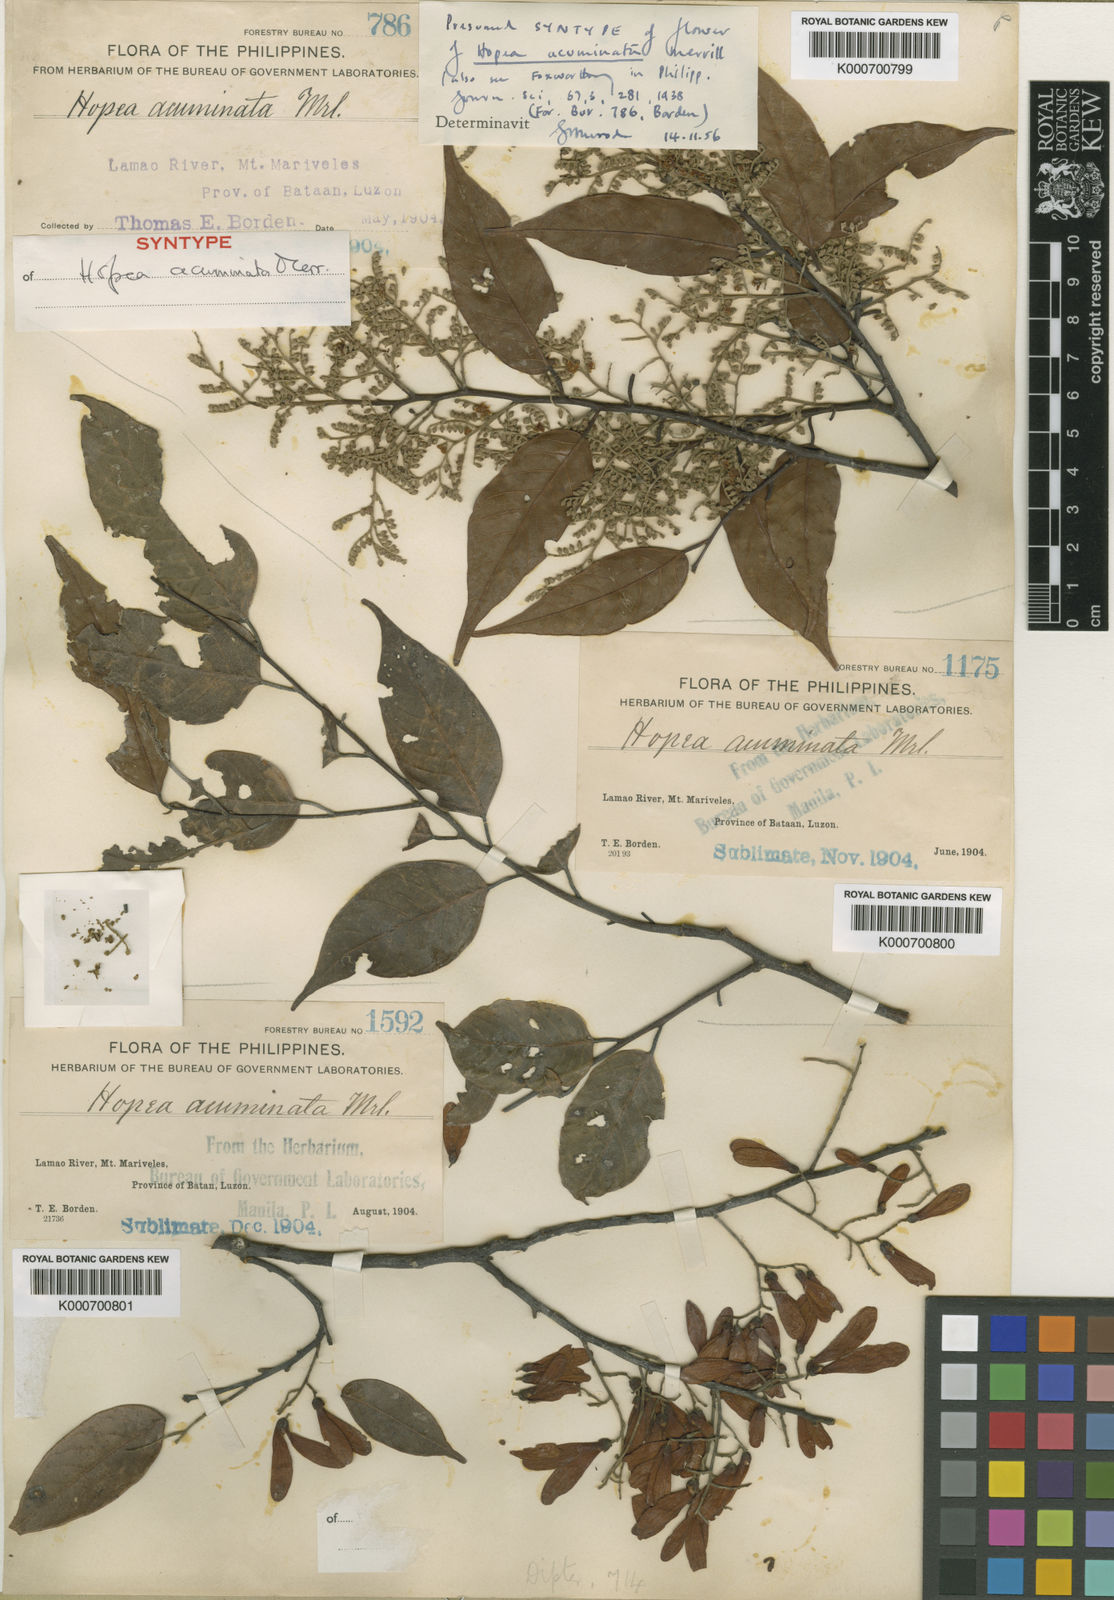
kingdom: Plantae
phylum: Tracheophyta
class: Magnoliopsida
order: Malvales
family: Dipterocarpaceae
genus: Hopea
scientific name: Hopea acuminata
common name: Dalingdingan
